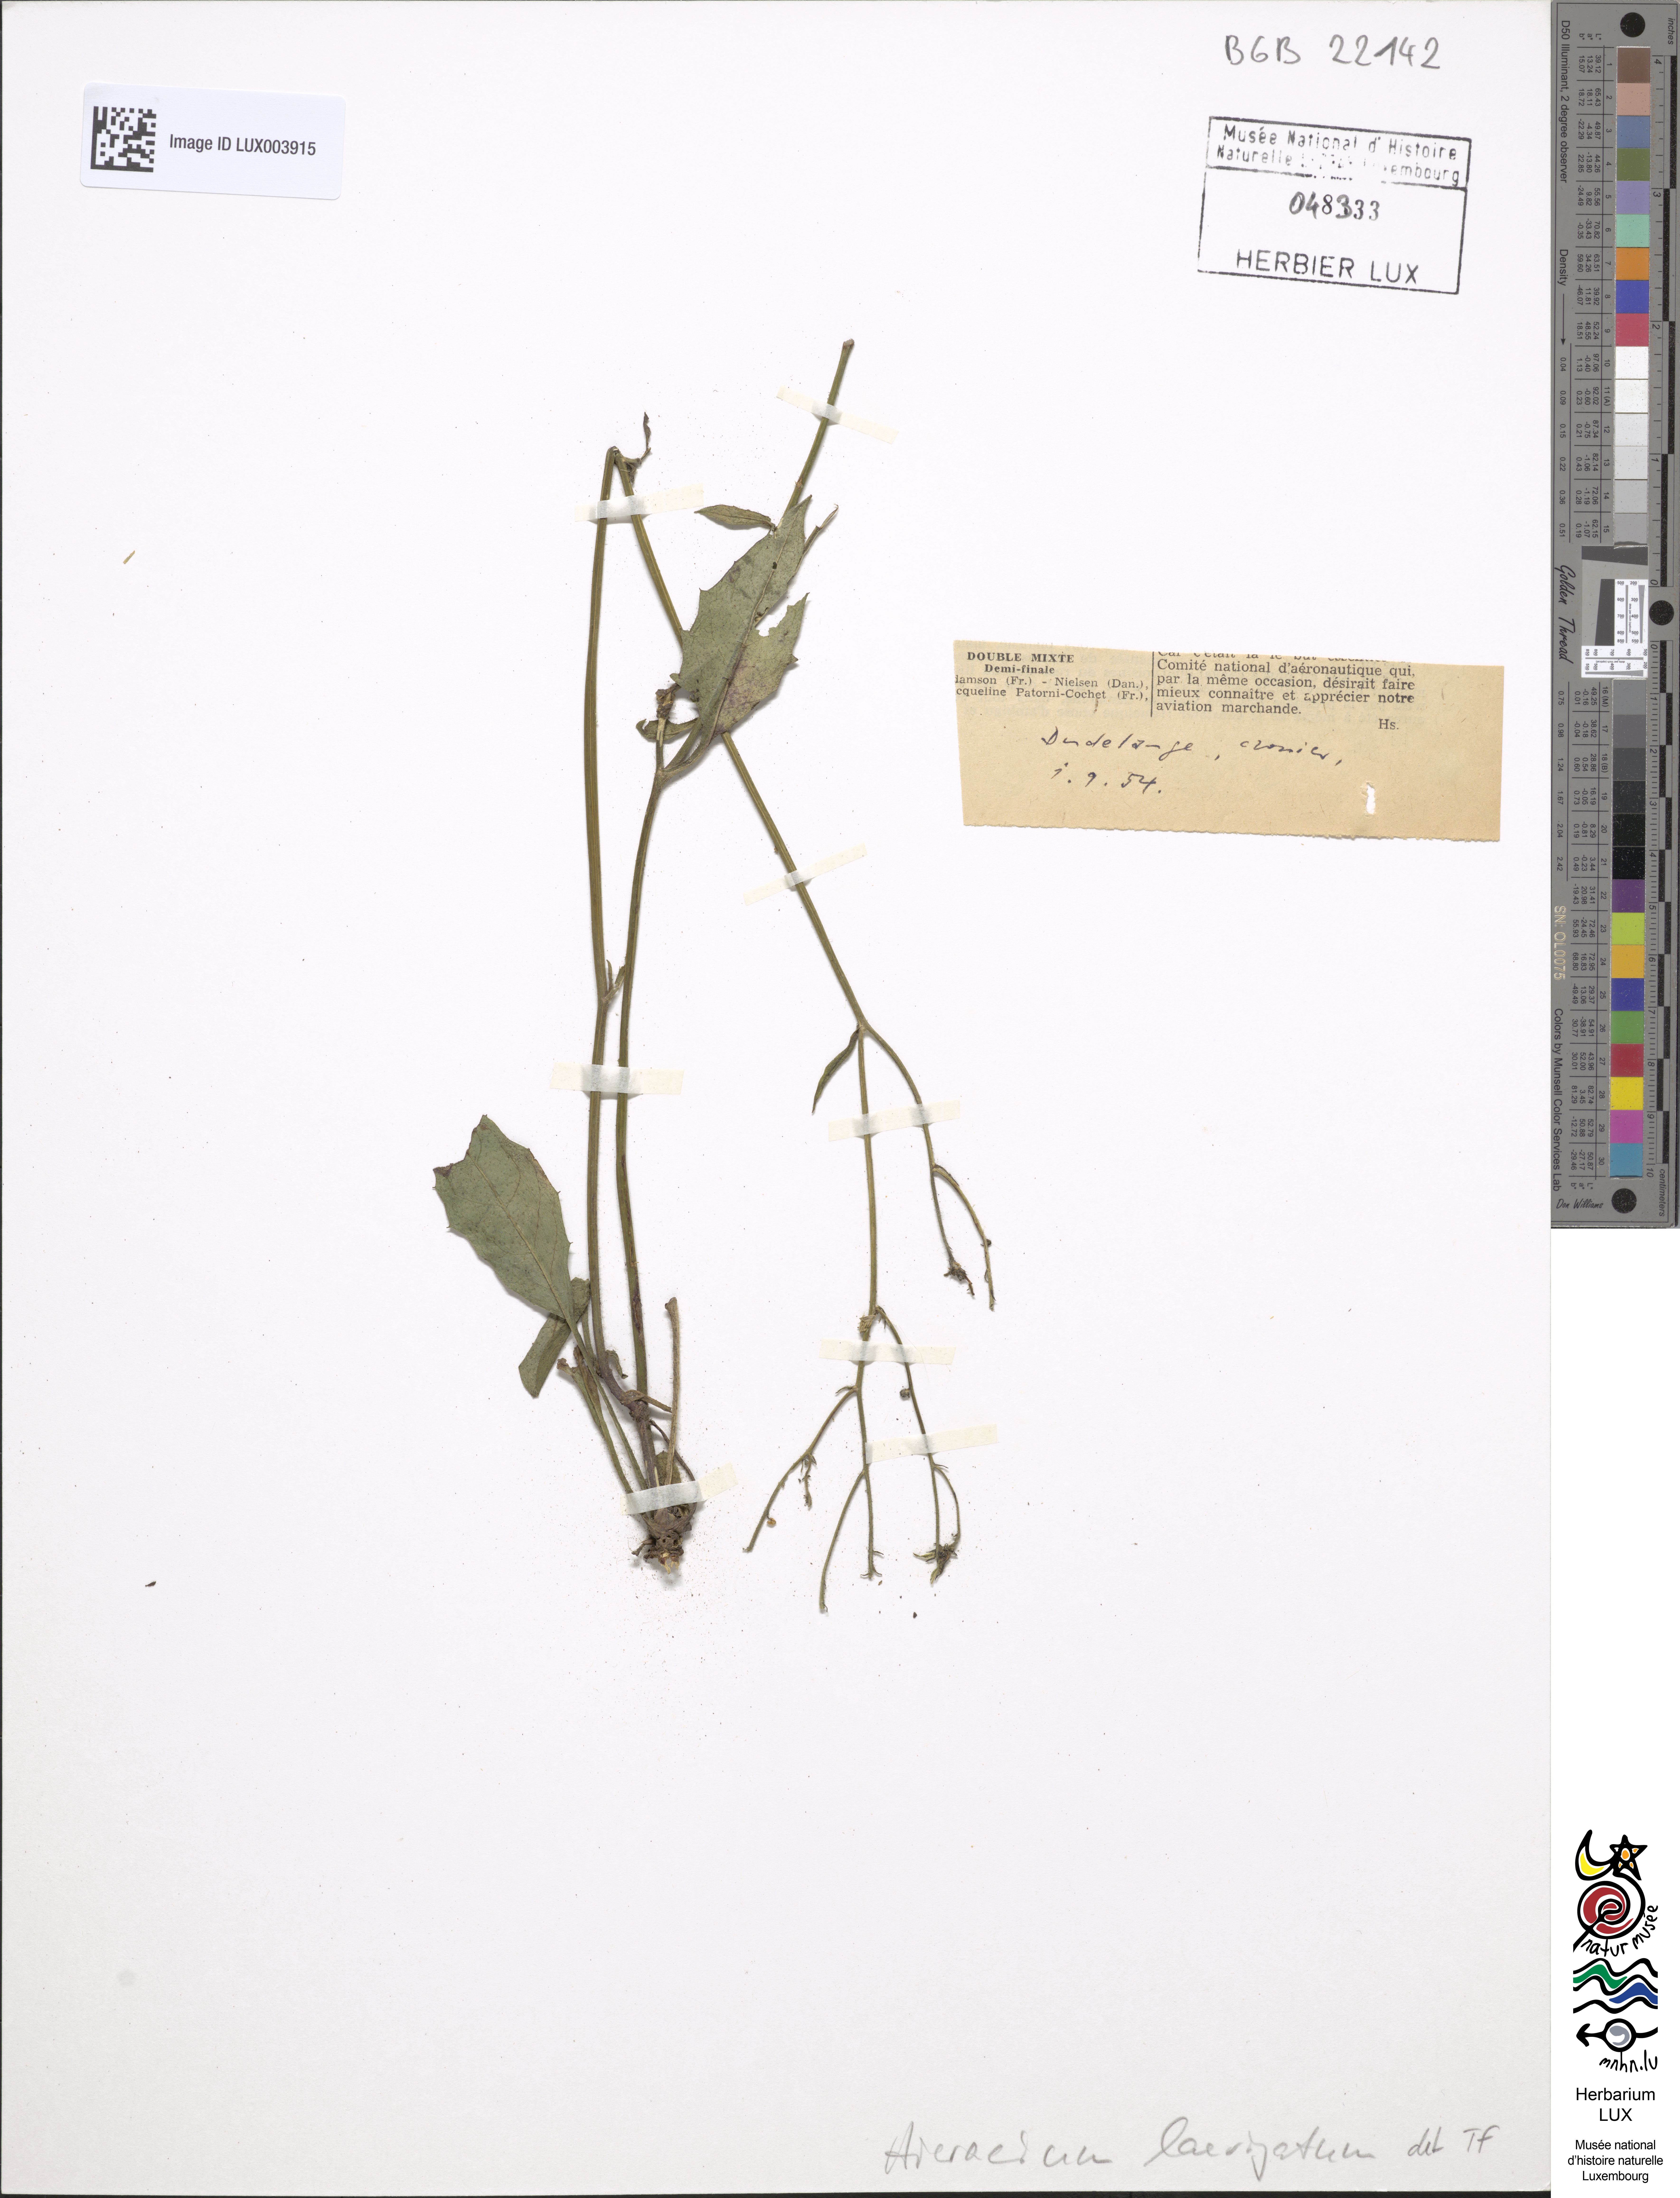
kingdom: Plantae
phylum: Tracheophyta
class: Magnoliopsida
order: Asterales
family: Asteraceae
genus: Hieracium
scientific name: Hieracium laevigatum
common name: Smooth hawkweed
